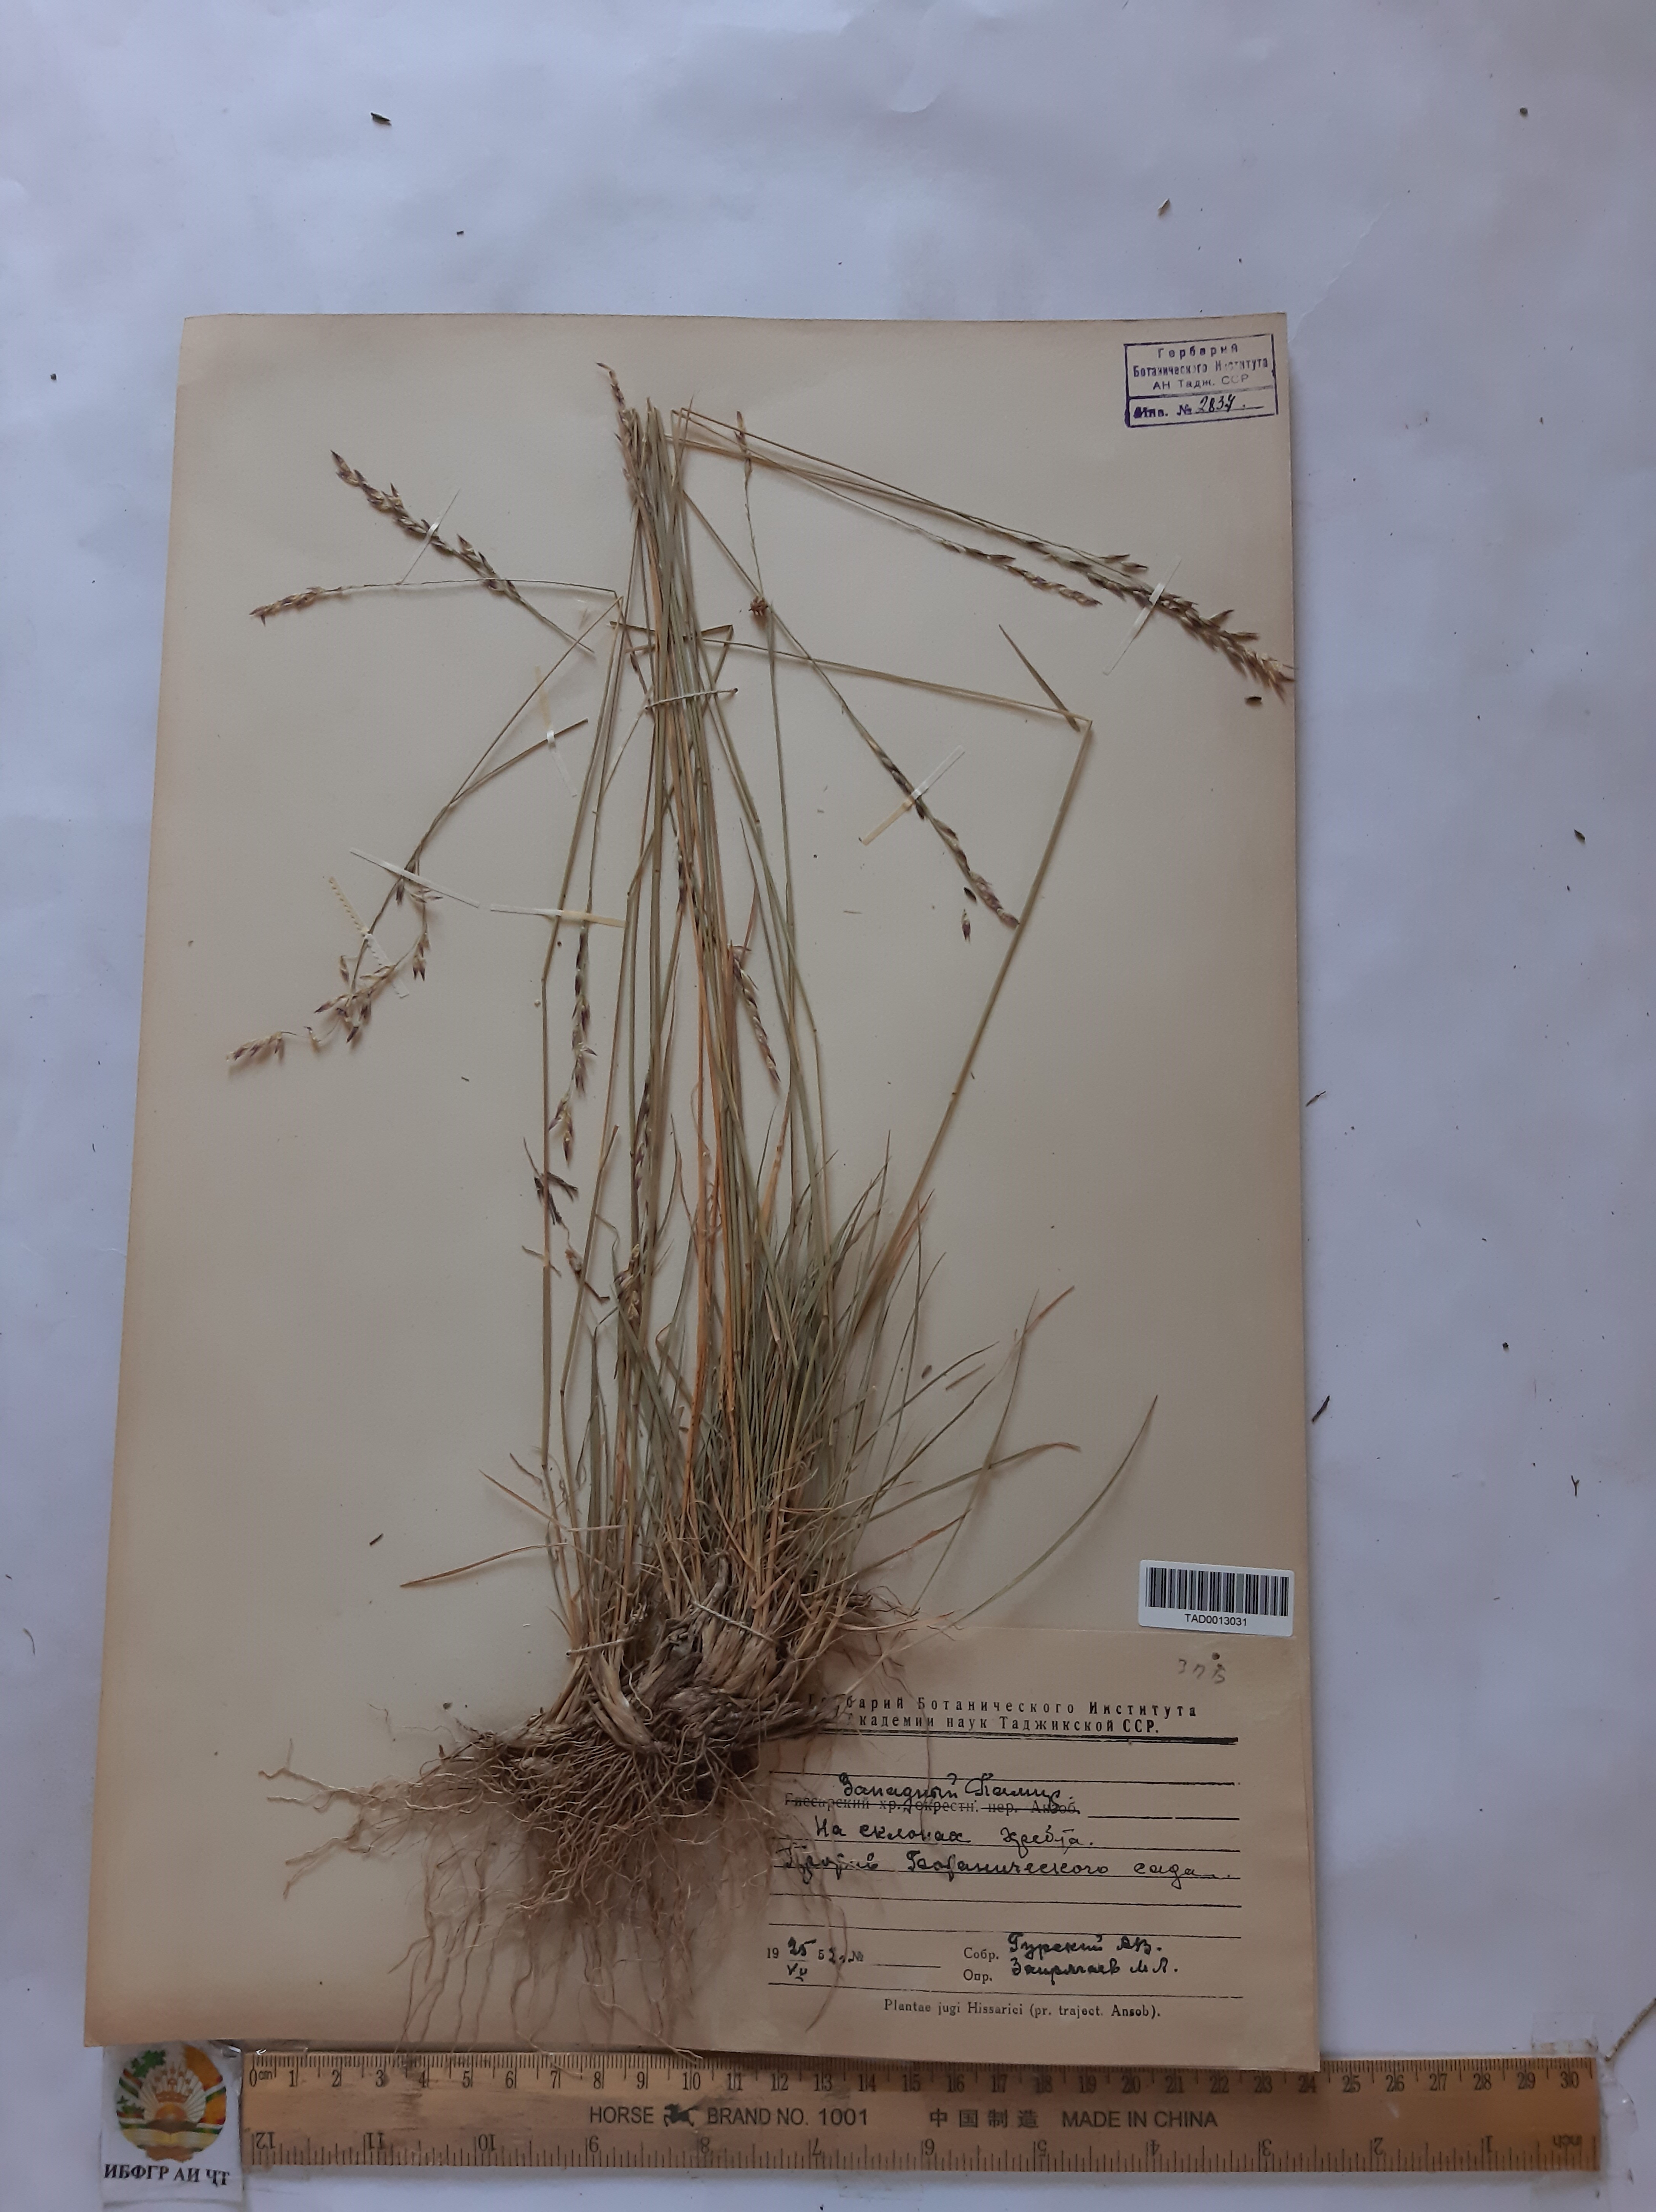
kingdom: Plantae
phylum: Tracheophyta
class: Liliopsida
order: Poales
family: Poaceae
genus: Piptatherum
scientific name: Piptatherum laterale
